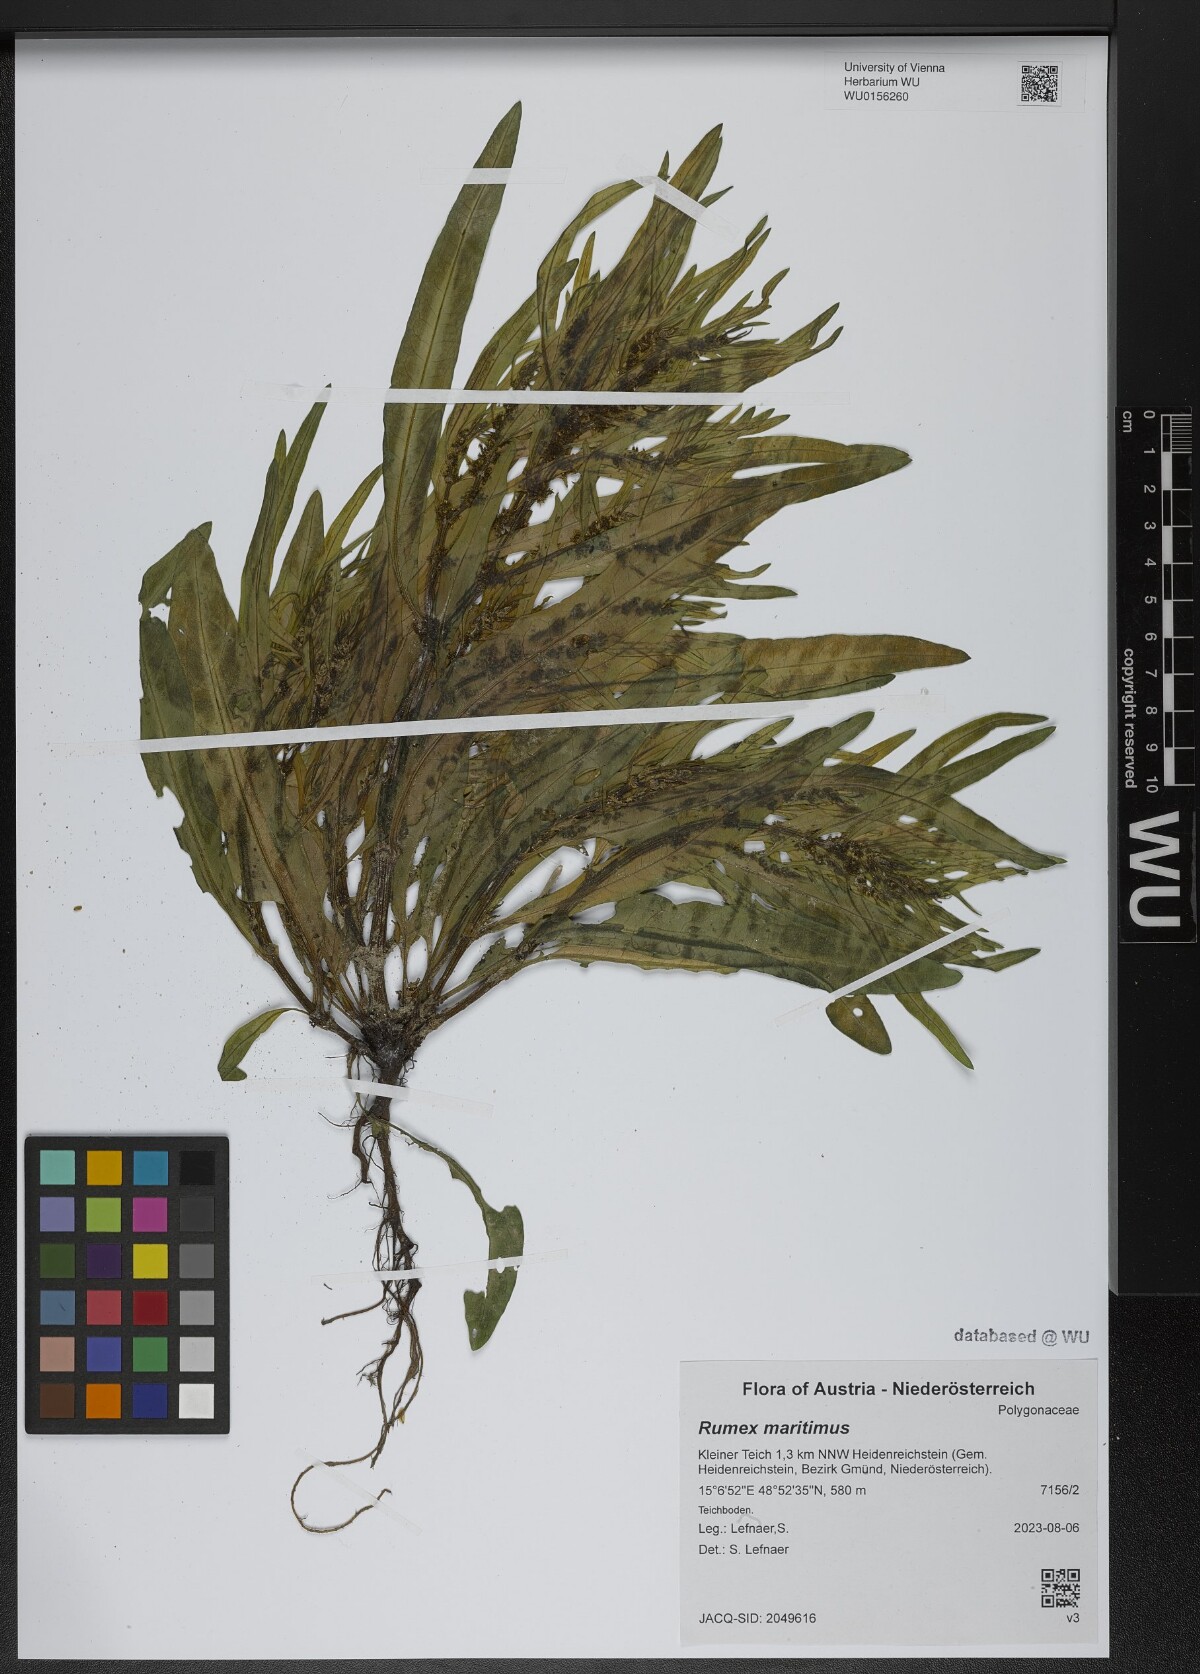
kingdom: Plantae
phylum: Tracheophyta
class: Magnoliopsida
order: Caryophyllales
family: Polygonaceae
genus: Rumex
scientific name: Rumex maritimus
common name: Golden dock
